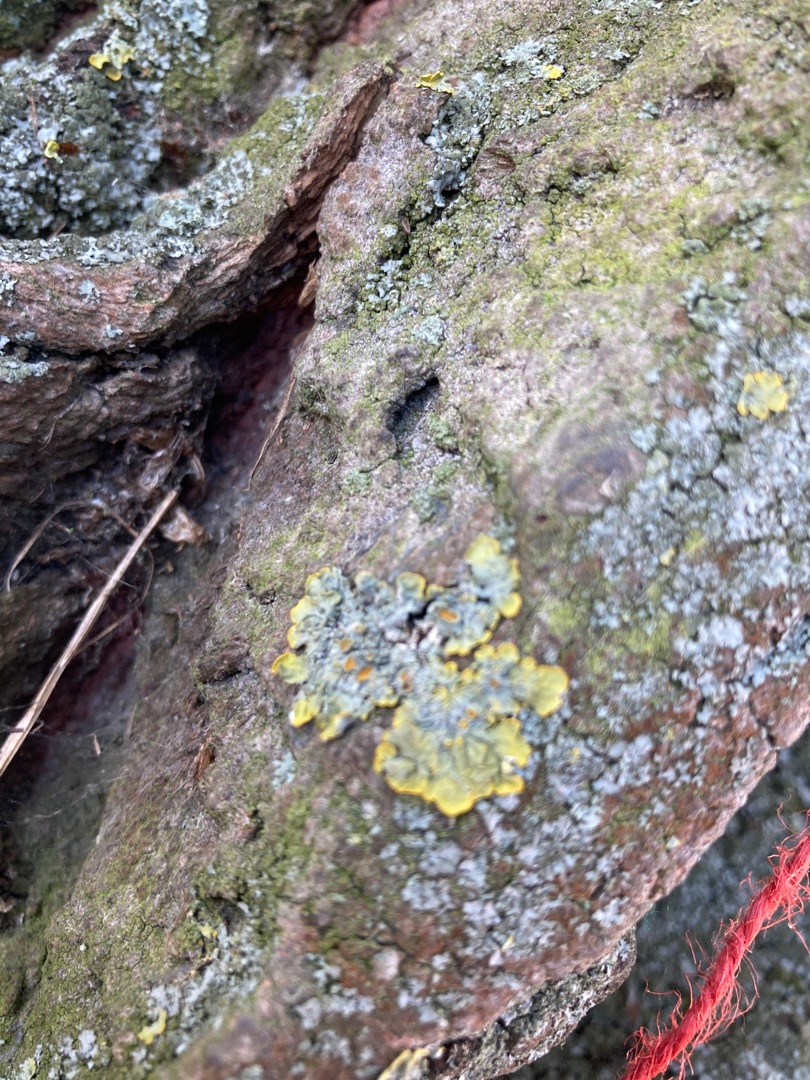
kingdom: Fungi
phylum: Ascomycota
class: Lecanoromycetes
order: Teloschistales
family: Teloschistaceae
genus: Xanthoria
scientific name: Xanthoria parietina
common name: Almindelig væggelav
